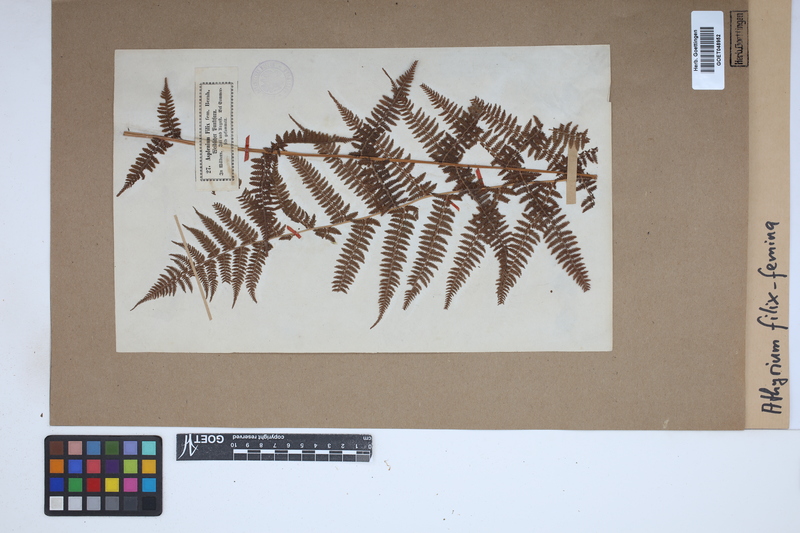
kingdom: Plantae
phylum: Tracheophyta
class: Polypodiopsida
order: Polypodiales
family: Athyriaceae
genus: Athyrium
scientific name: Athyrium filix-femina
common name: Lady fern
